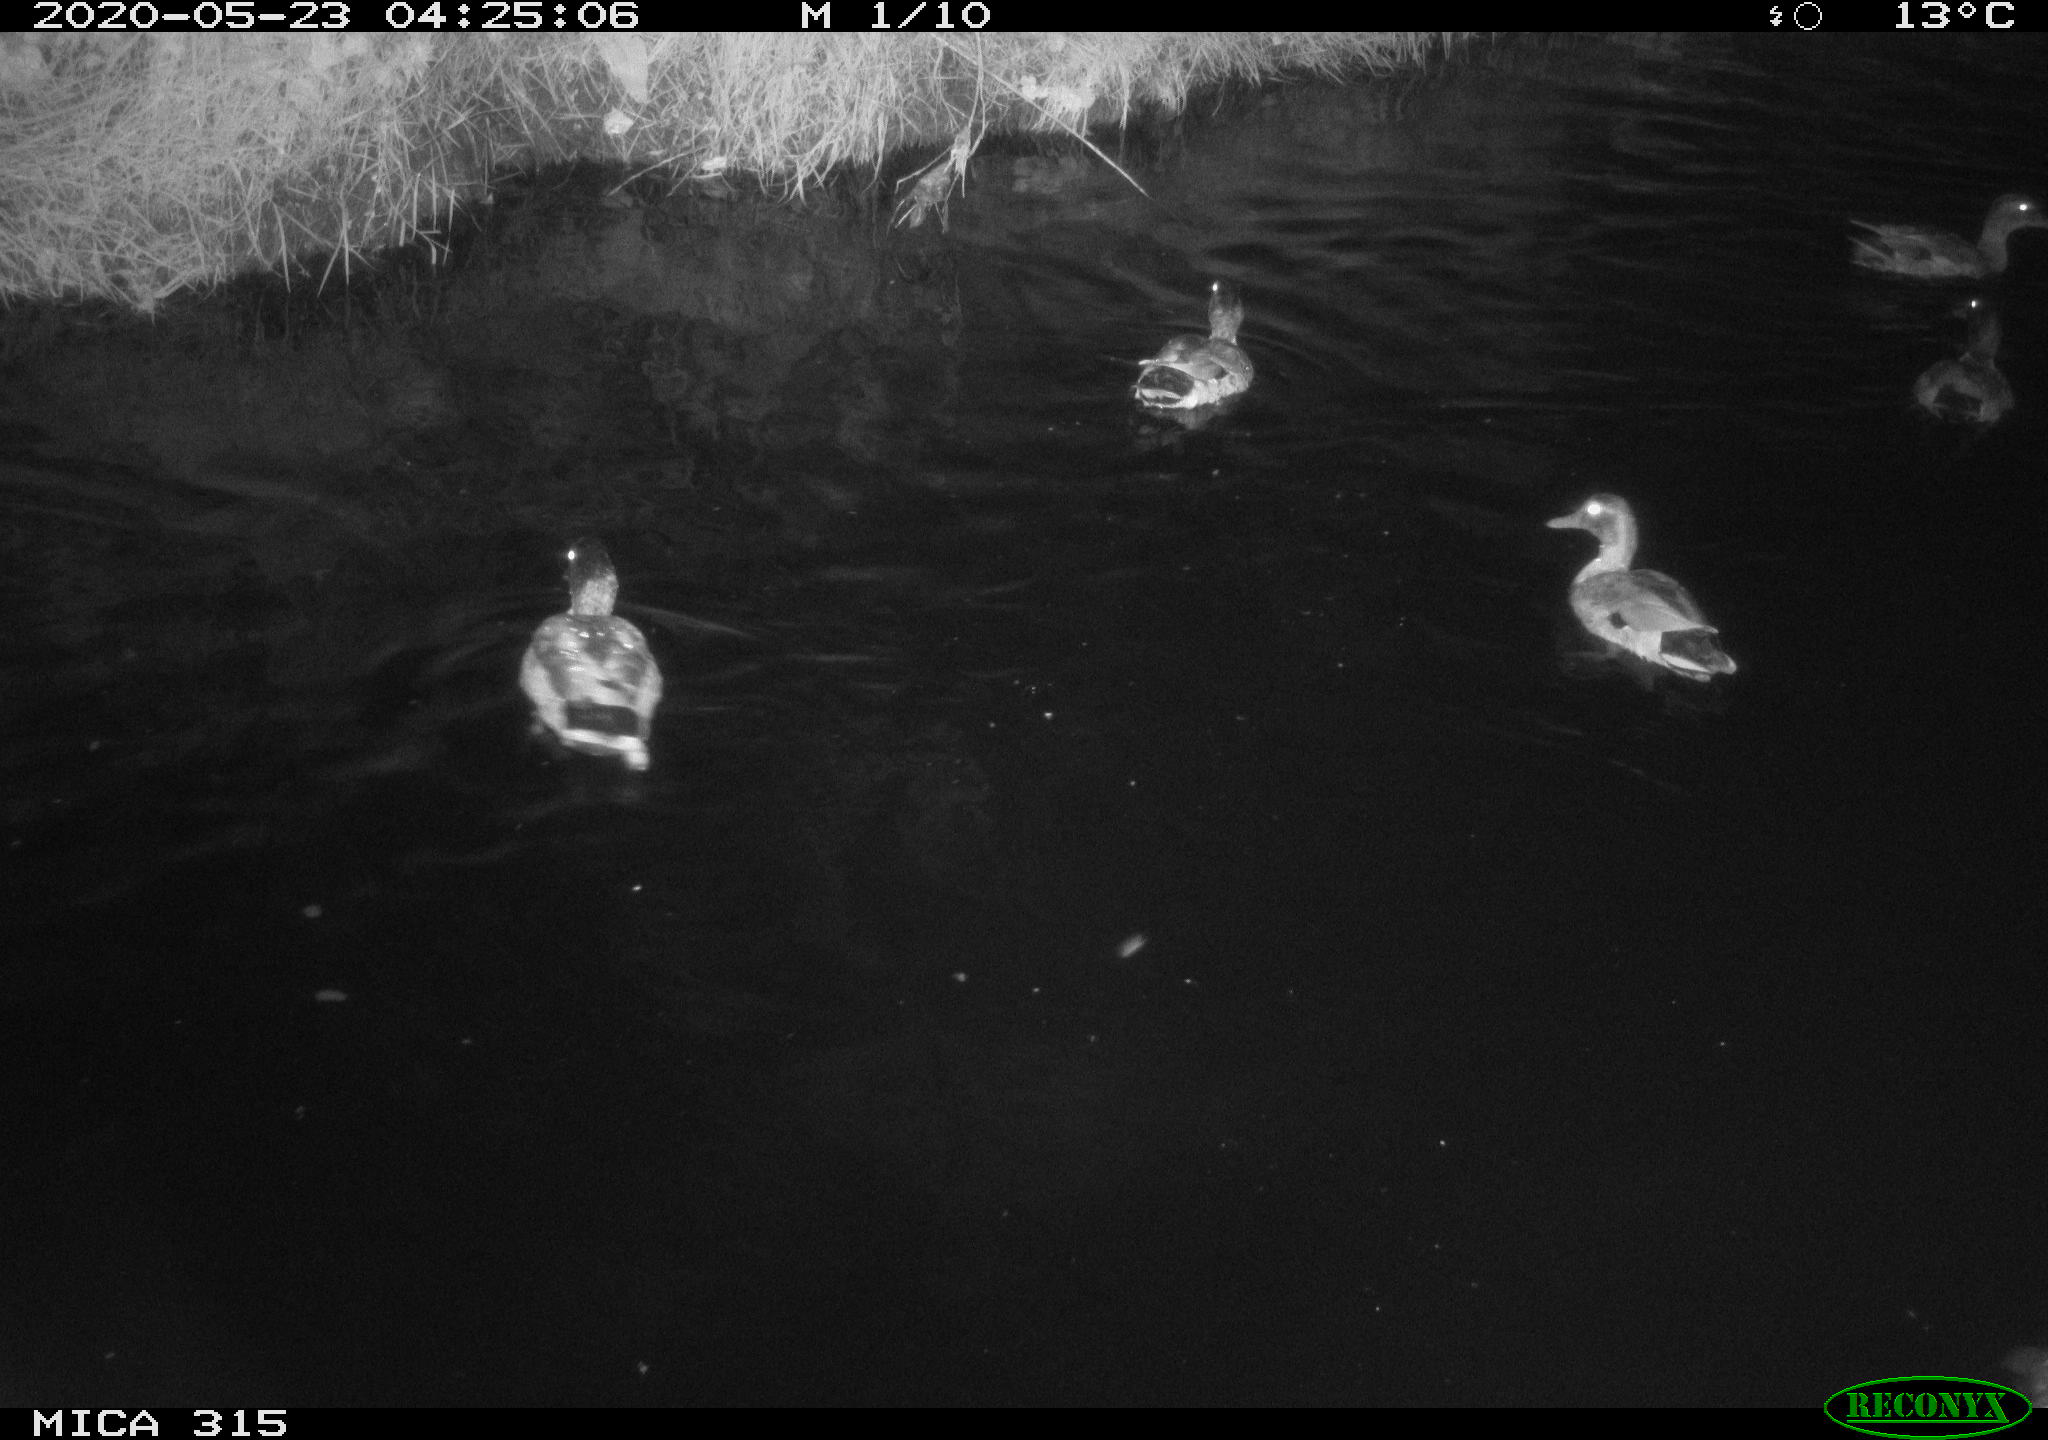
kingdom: Animalia
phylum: Chordata
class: Aves
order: Anseriformes
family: Anatidae
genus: Anas
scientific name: Anas platyrhynchos
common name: Mallard
